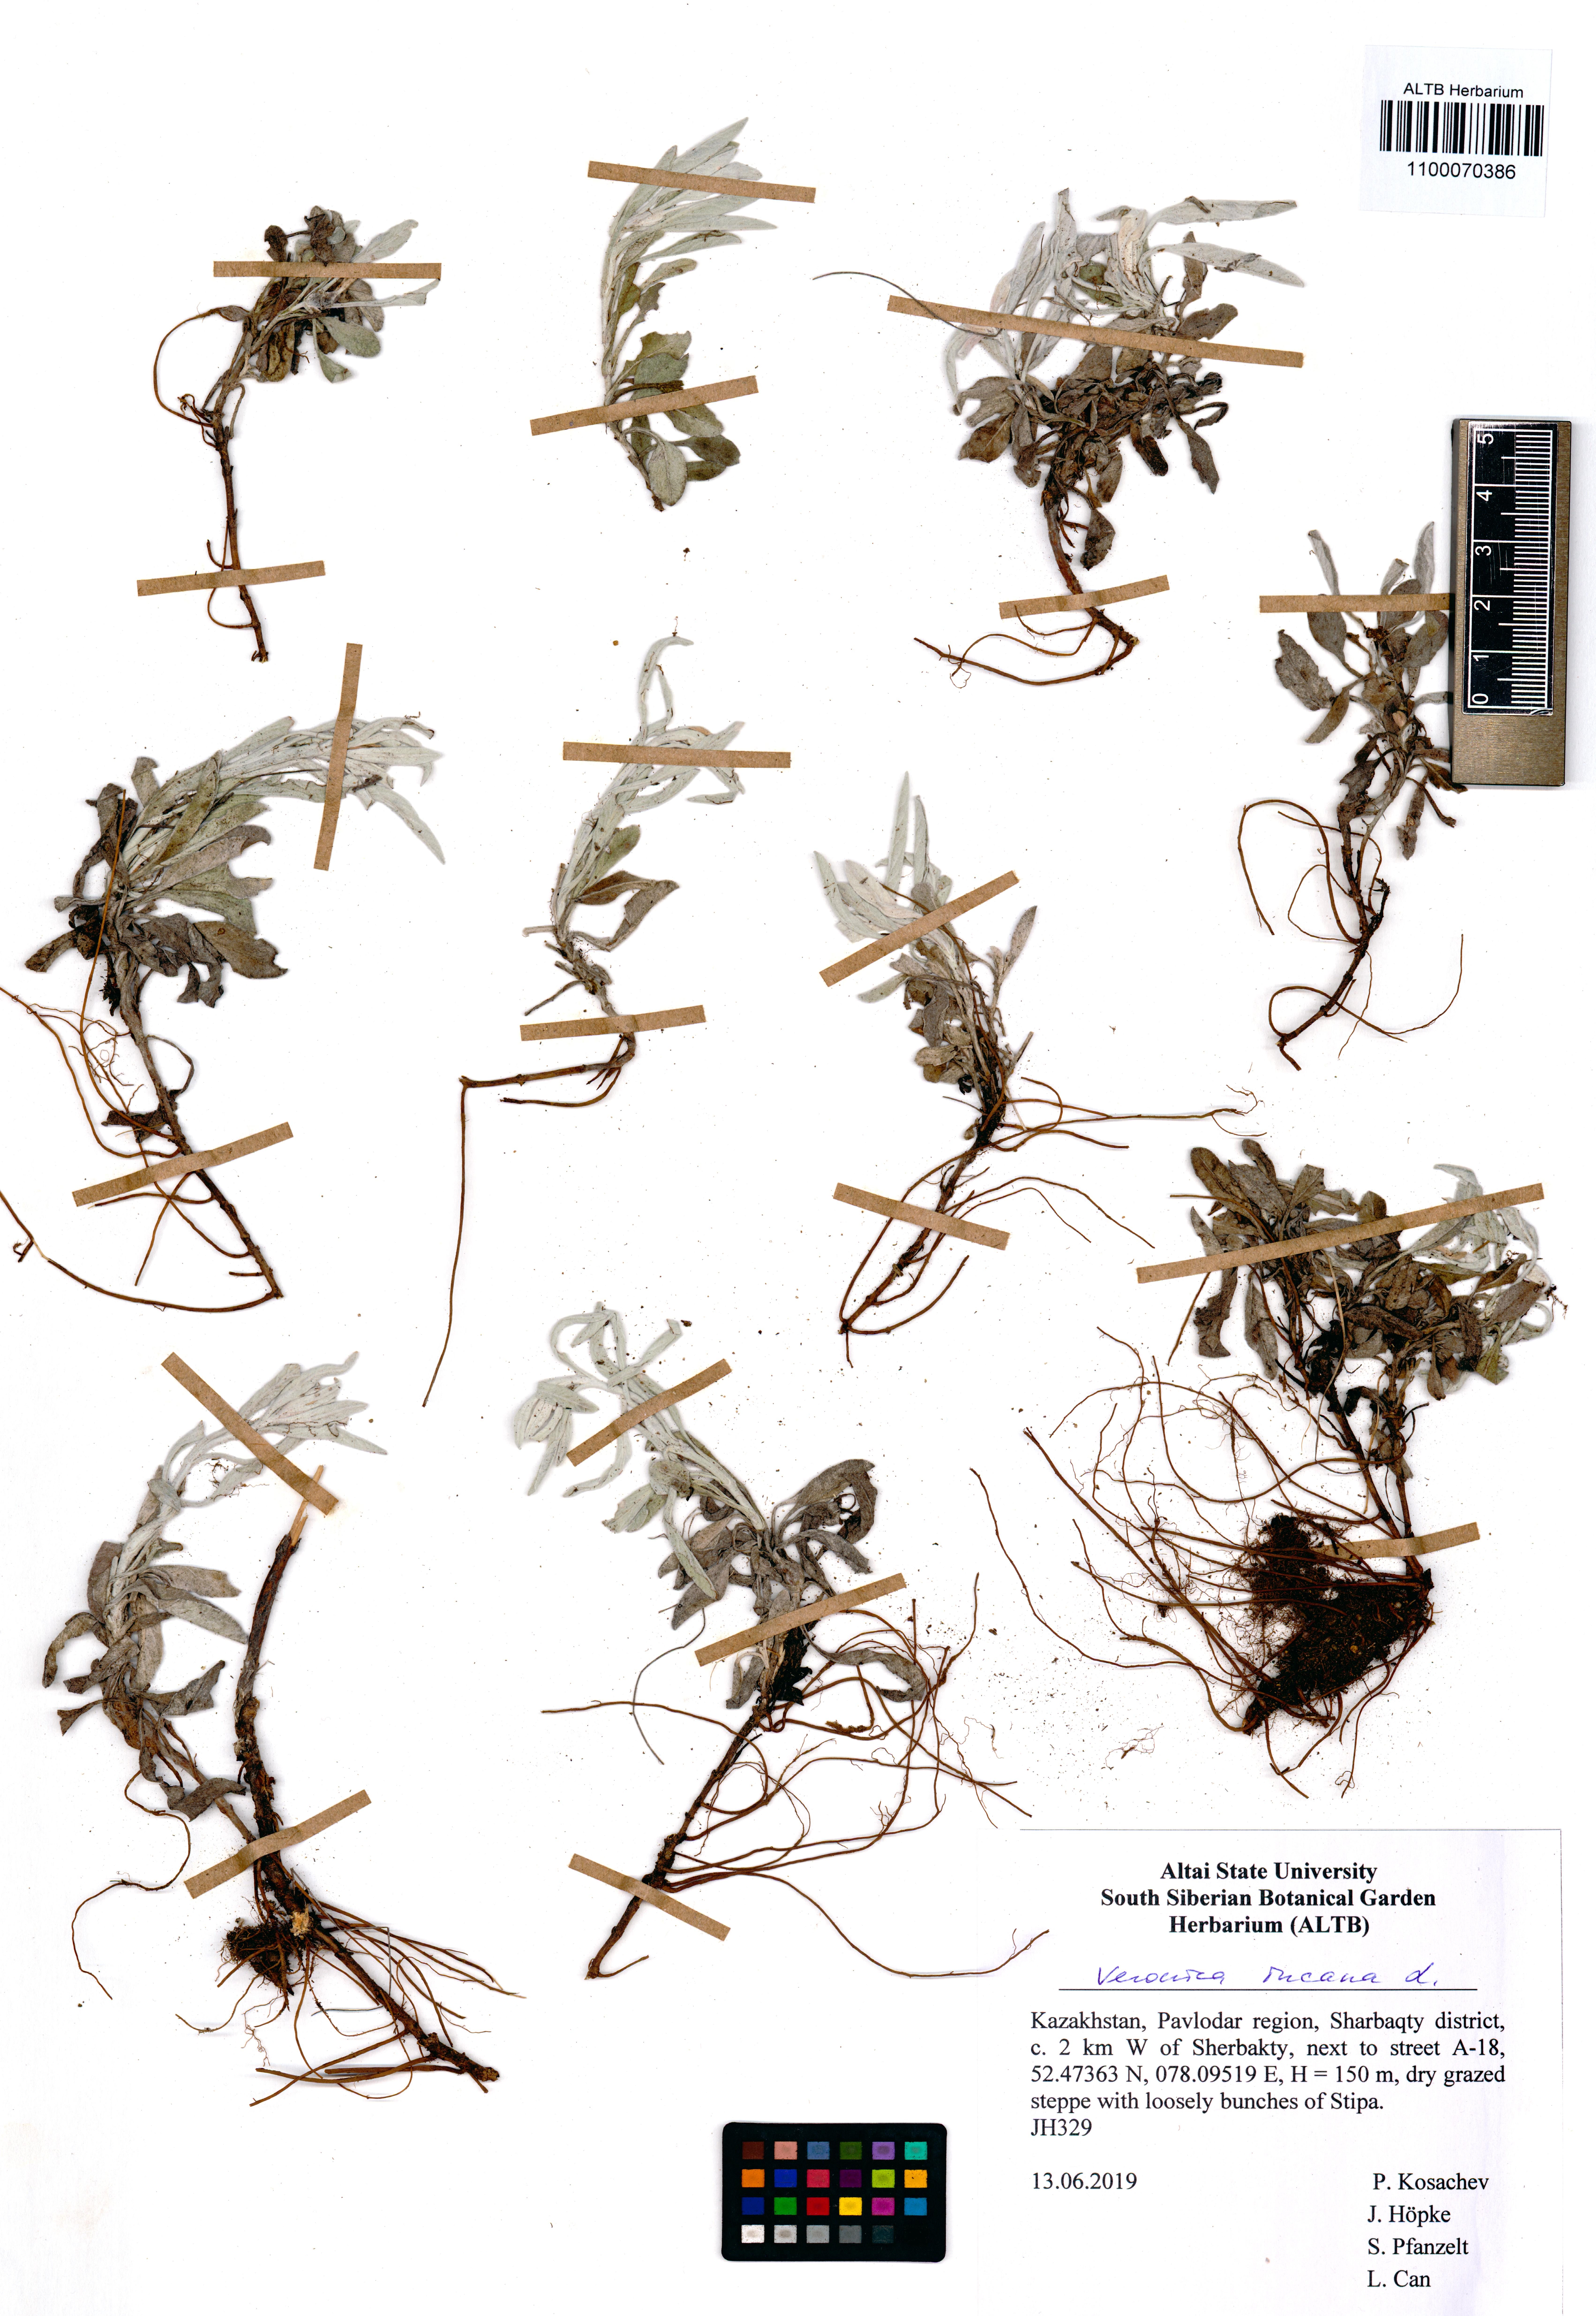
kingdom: Plantae
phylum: Tracheophyta
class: Magnoliopsida
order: Lamiales
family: Plantaginaceae
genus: Veronica
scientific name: Veronica incana
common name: Silver speedwell
